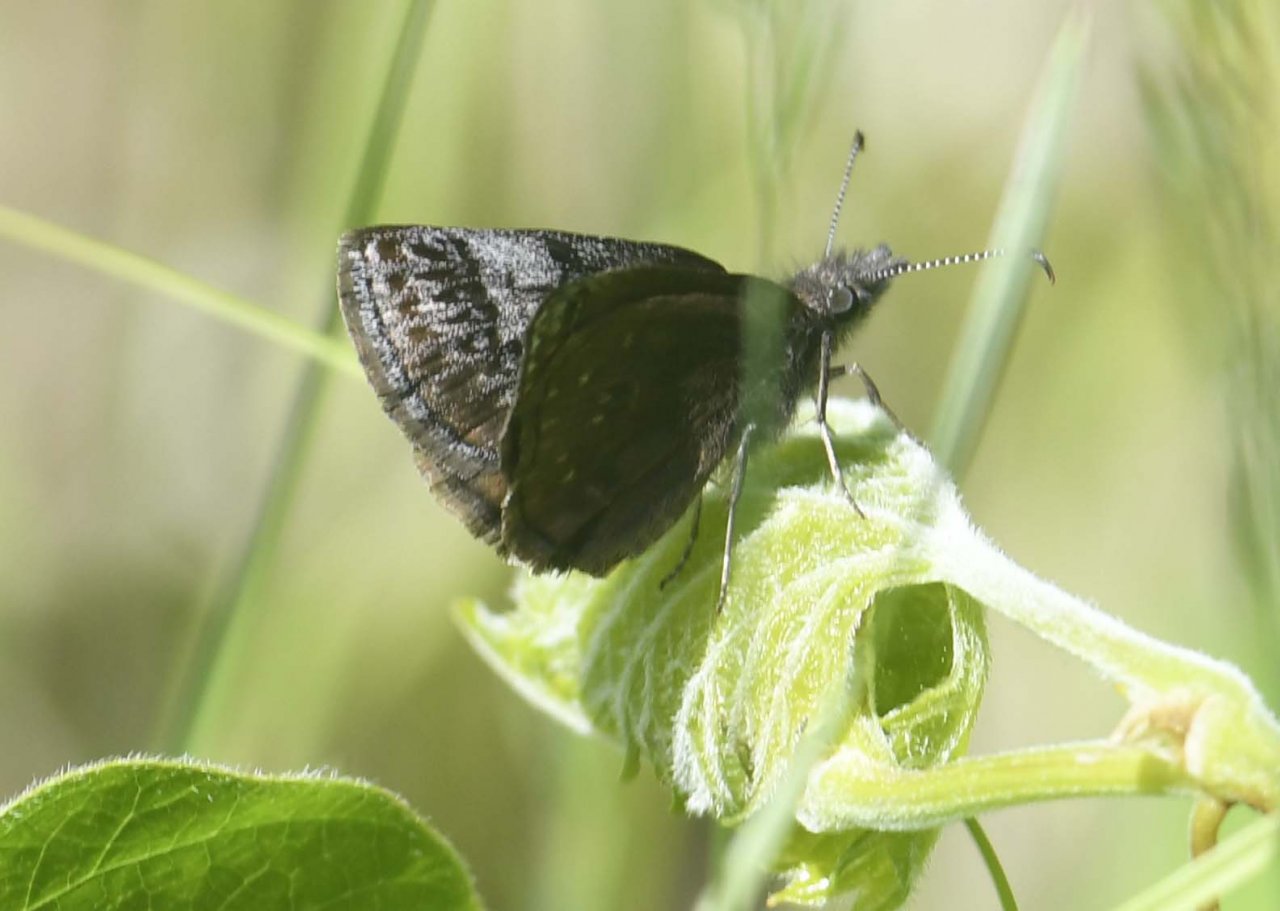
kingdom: Animalia
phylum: Arthropoda
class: Insecta
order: Lepidoptera
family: Hesperiidae
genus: Erynnis
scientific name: Erynnis icelus
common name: Dreamy Duskywing
